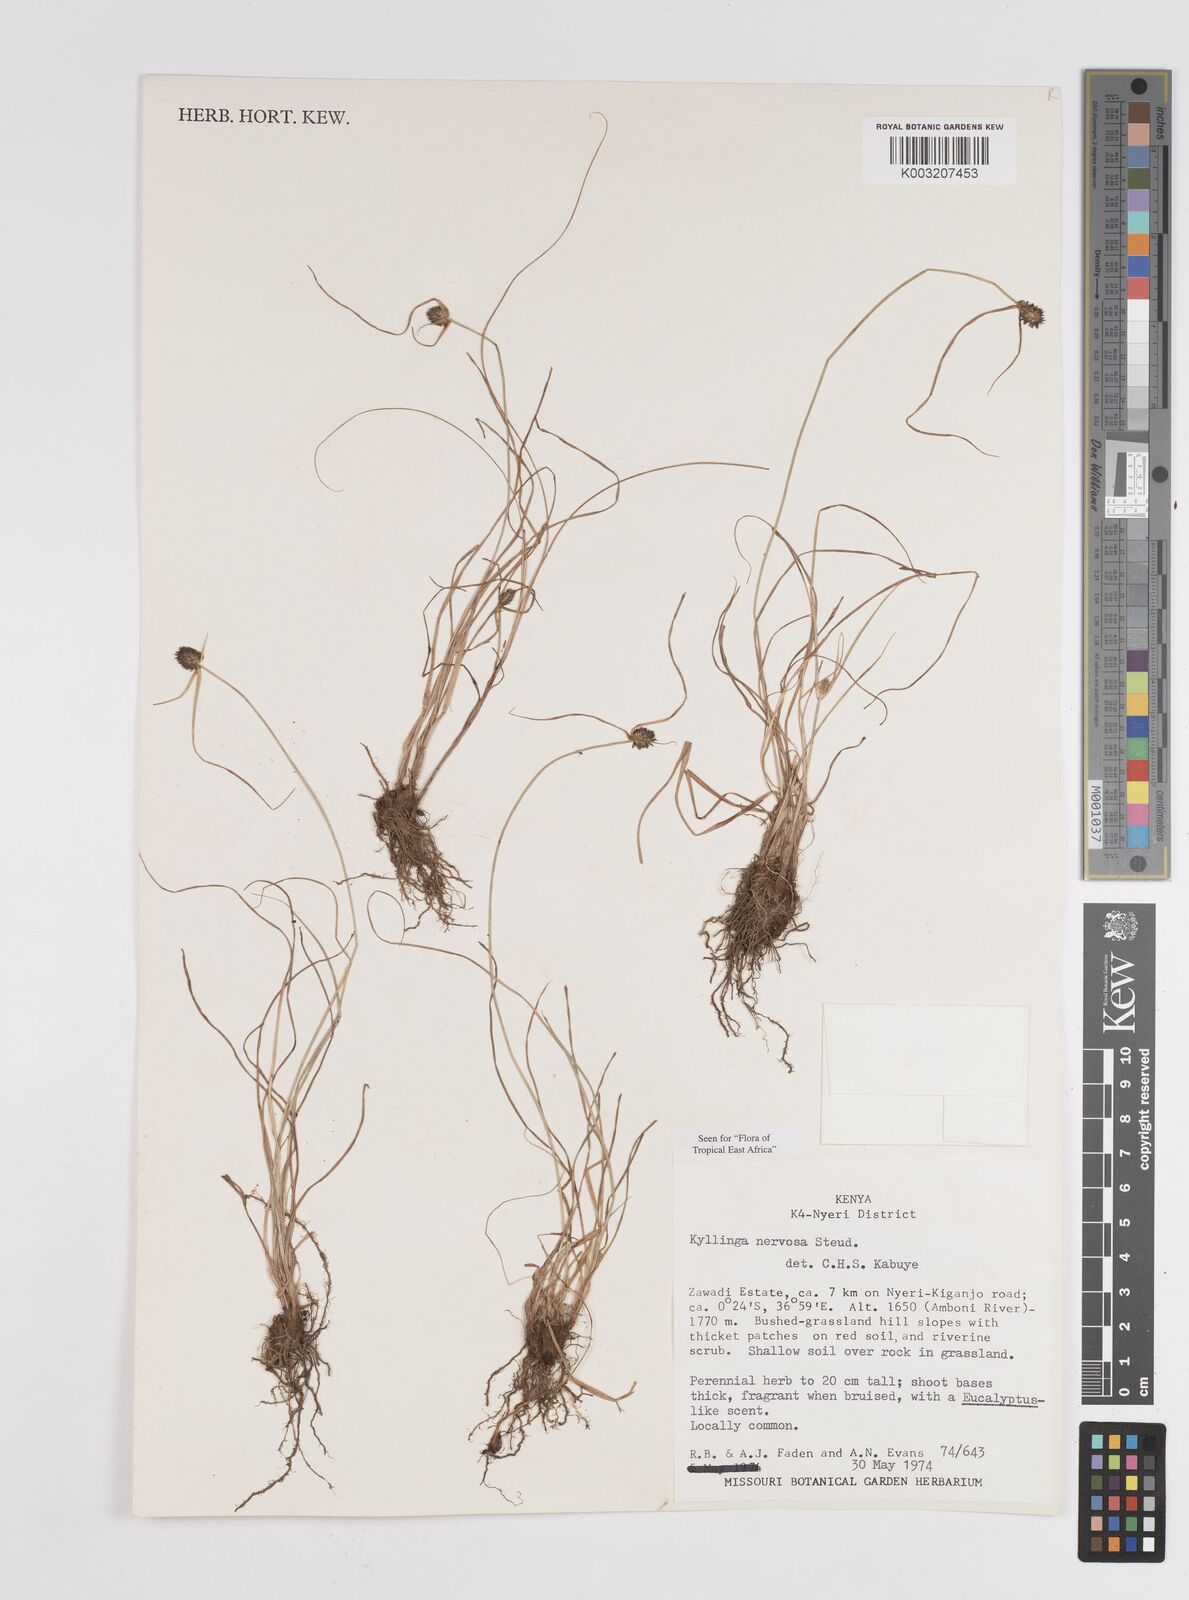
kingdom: Plantae
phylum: Tracheophyta
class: Liliopsida
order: Poales
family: Cyperaceae
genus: Cyperus
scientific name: Cyperus
